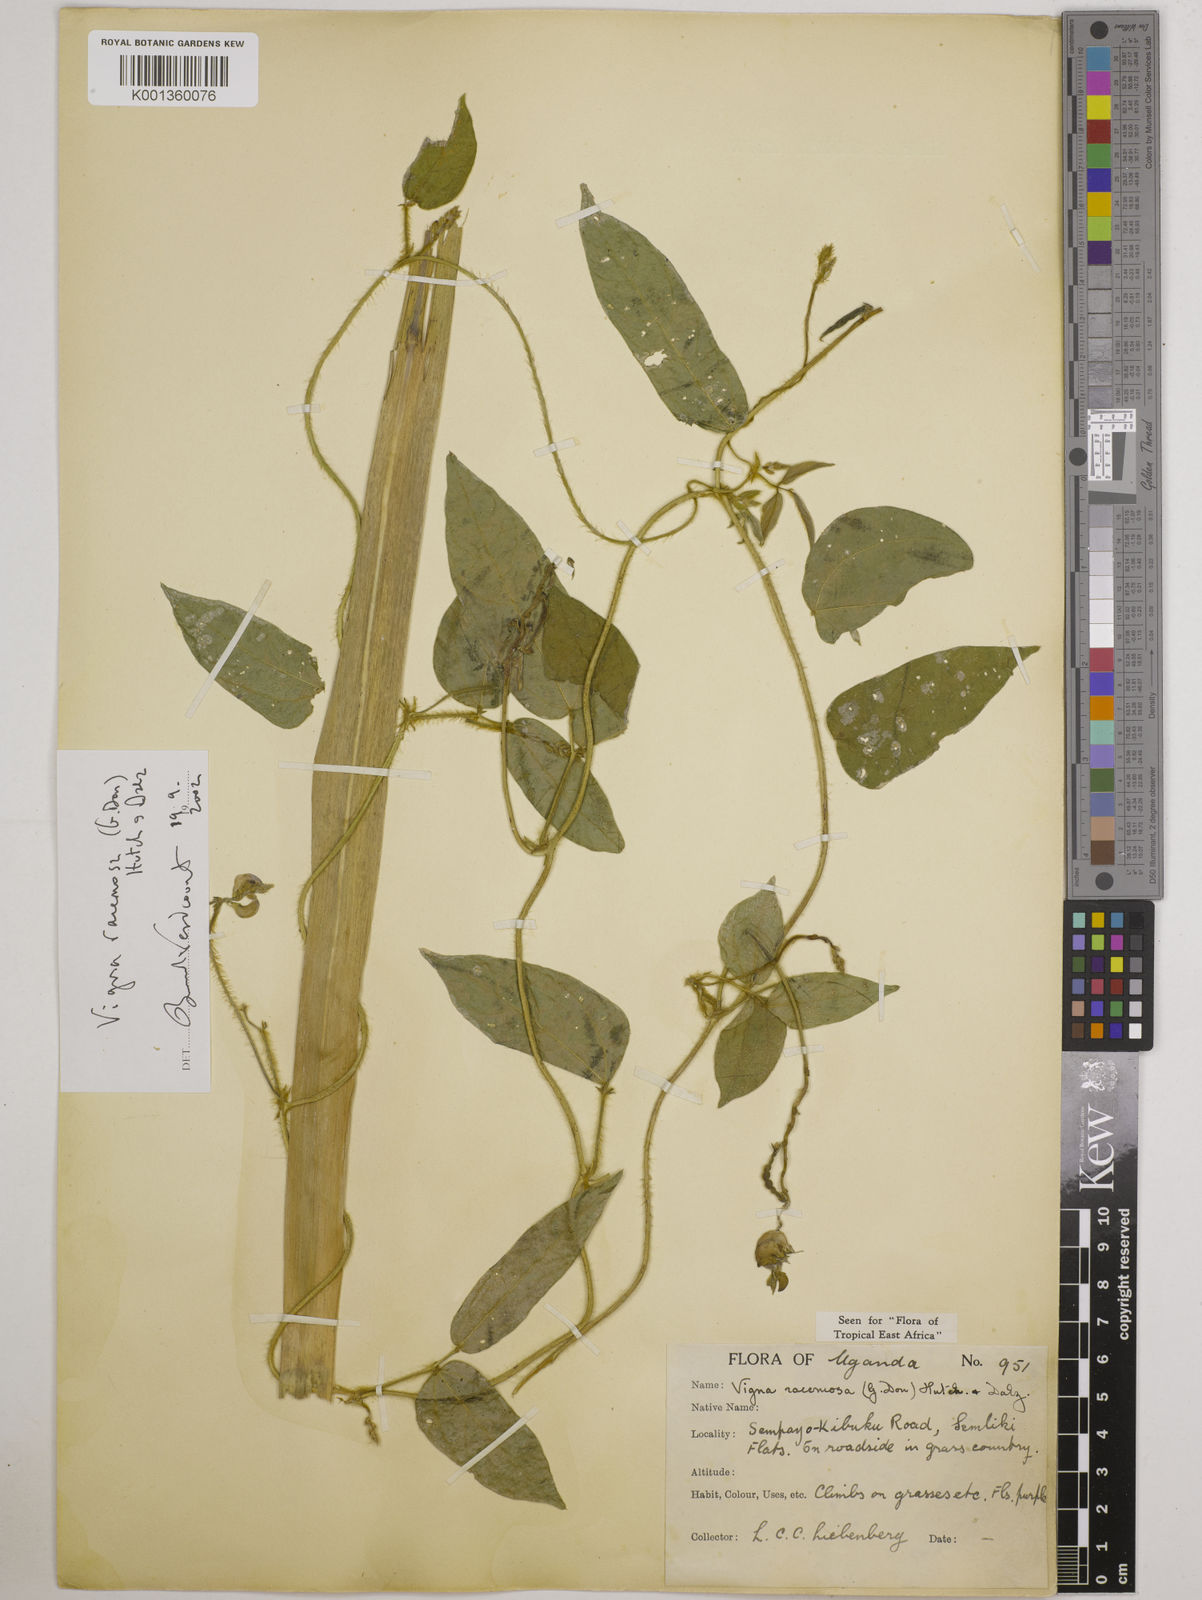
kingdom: Plantae
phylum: Tracheophyta
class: Magnoliopsida
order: Fabales
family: Fabaceae
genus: Vigna
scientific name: Vigna racemosa
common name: Beans not eaten
